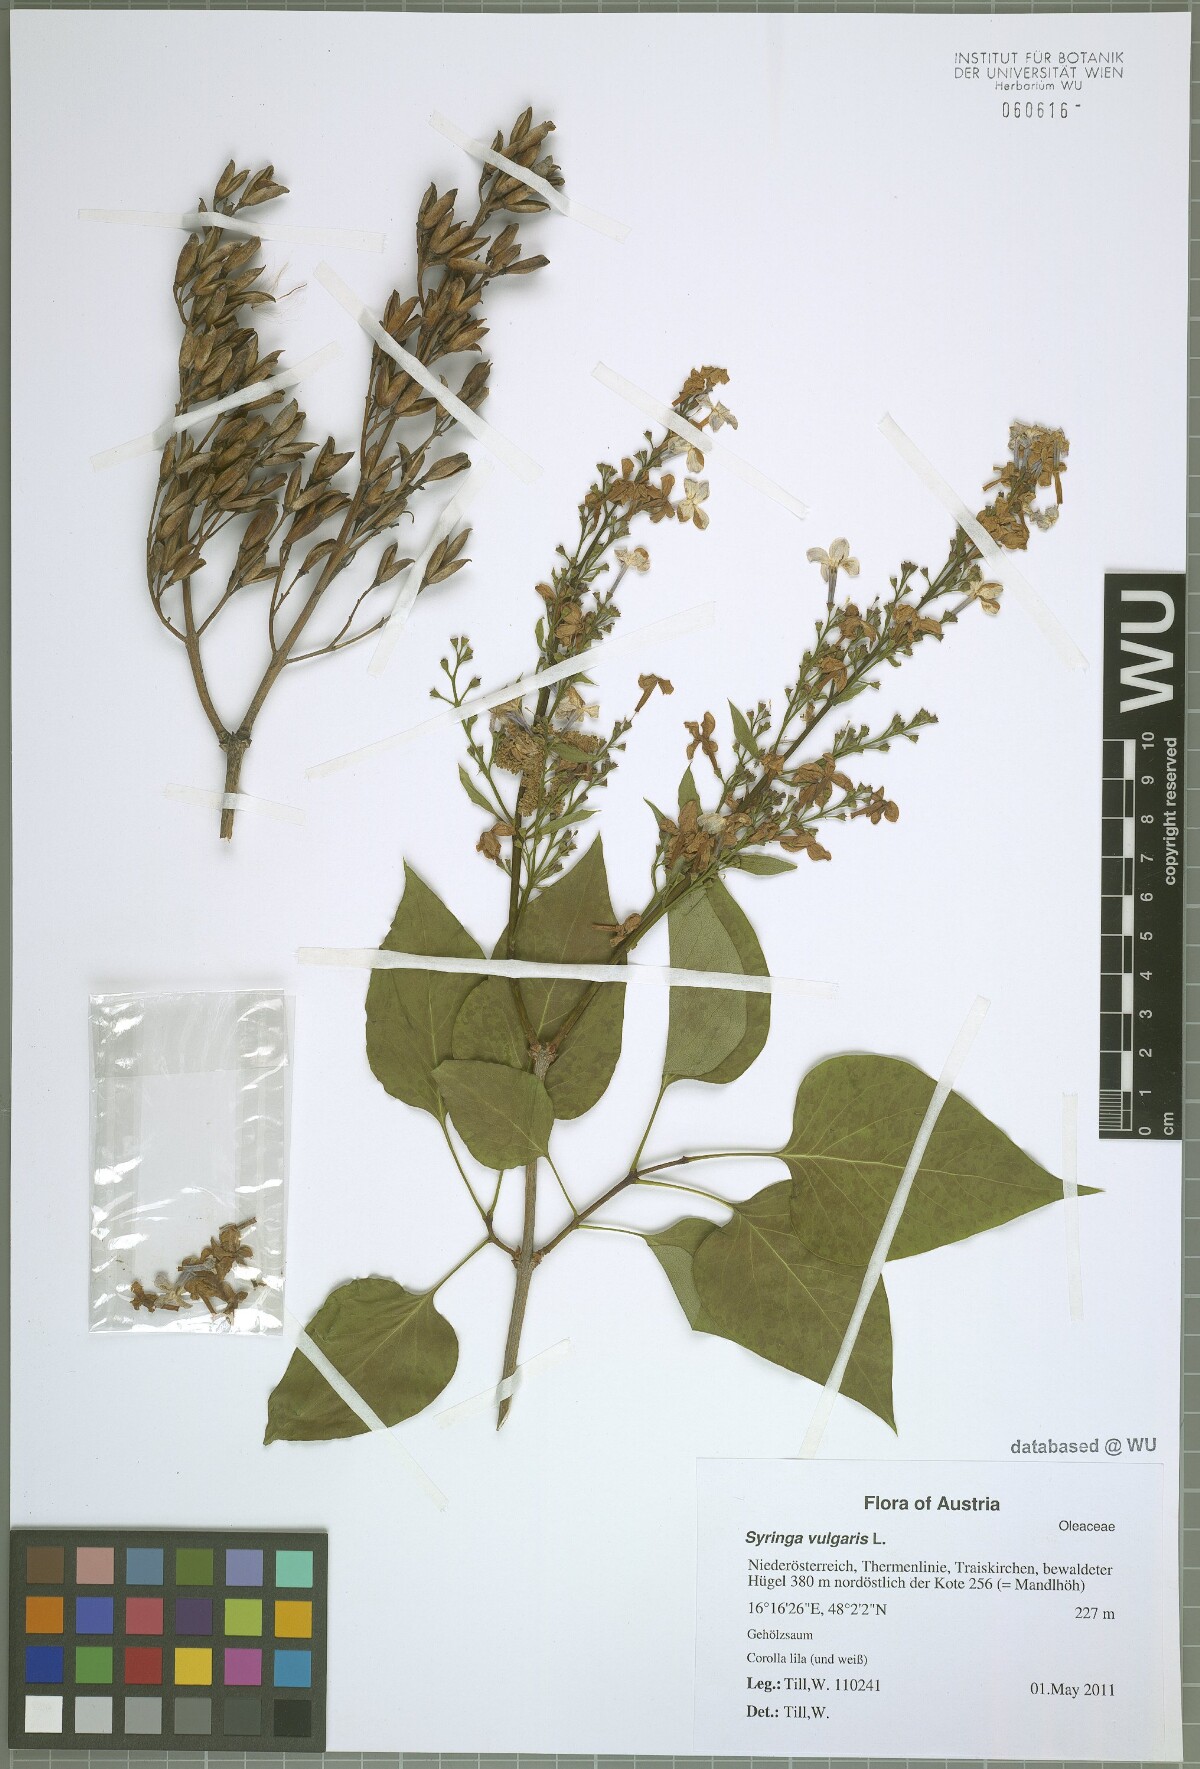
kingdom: Plantae
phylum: Tracheophyta
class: Magnoliopsida
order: Lamiales
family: Oleaceae
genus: Syringa
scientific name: Syringa vulgaris
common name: Common lilac
